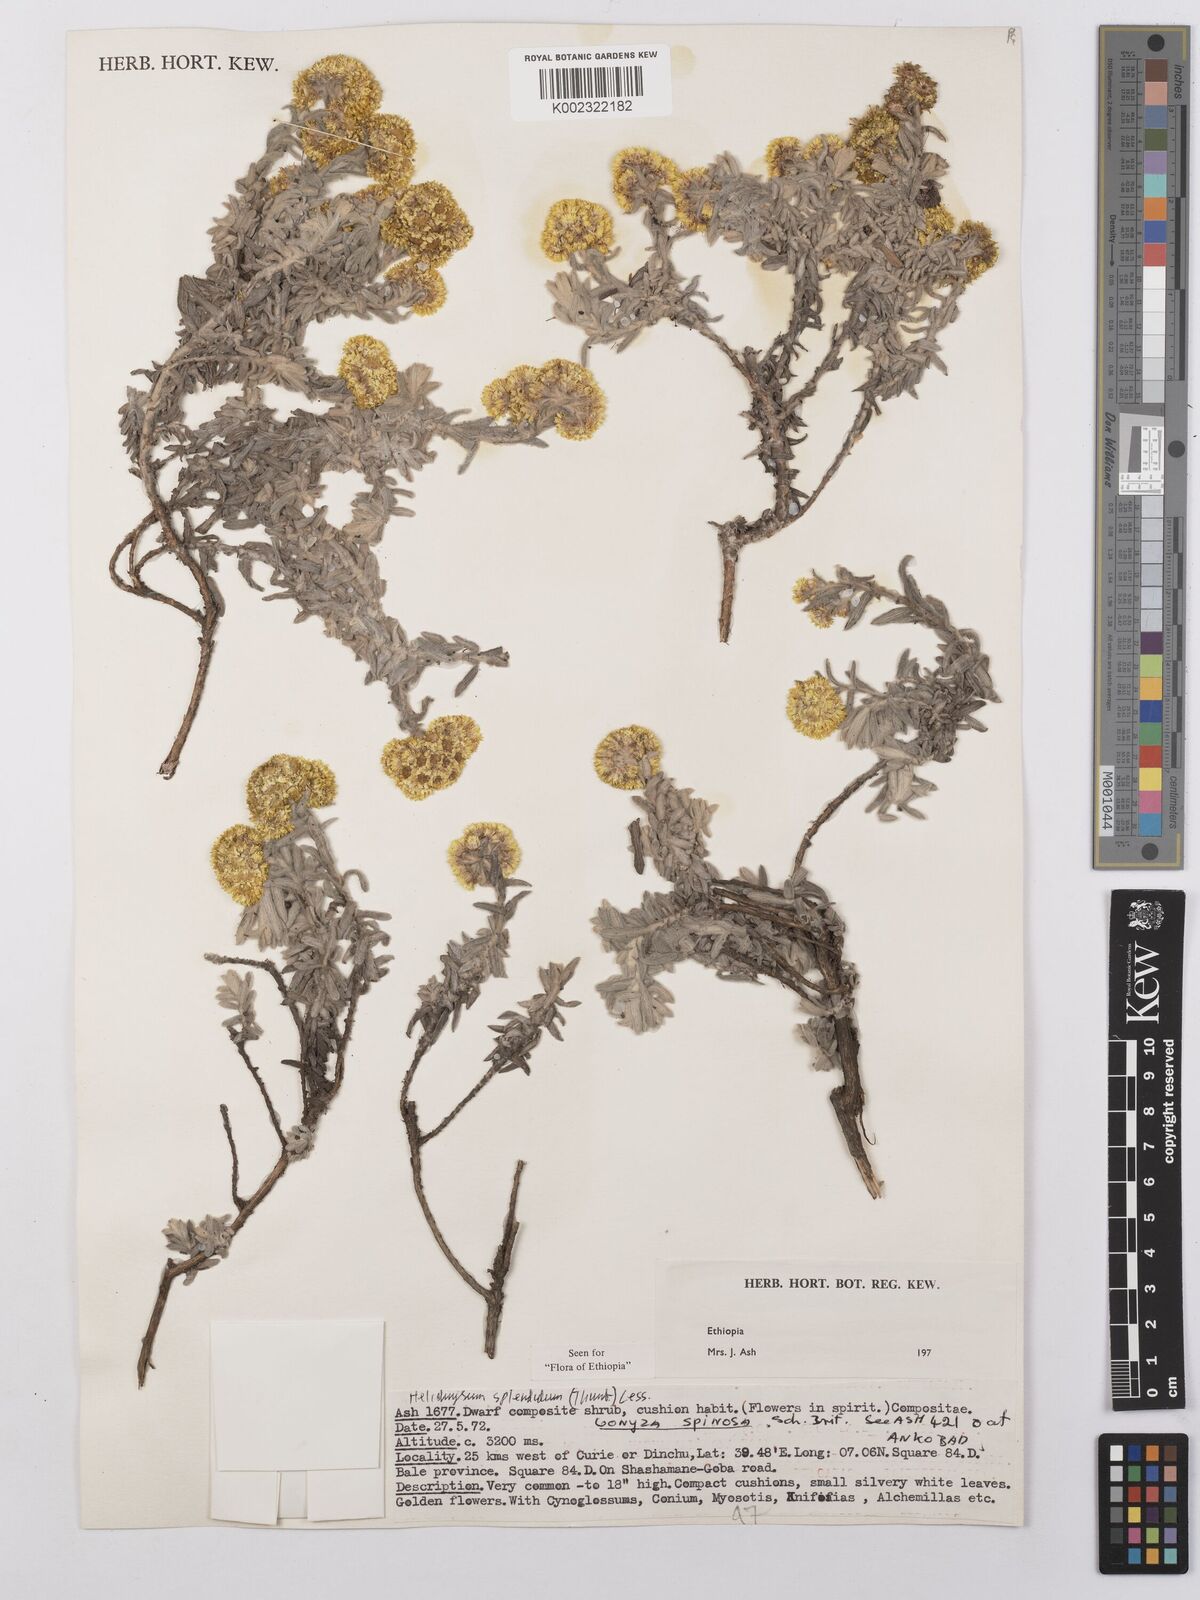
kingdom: Plantae
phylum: Tracheophyta
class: Magnoliopsida
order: Asterales
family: Asteraceae
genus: Helichrysum
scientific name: Helichrysum splendidum
